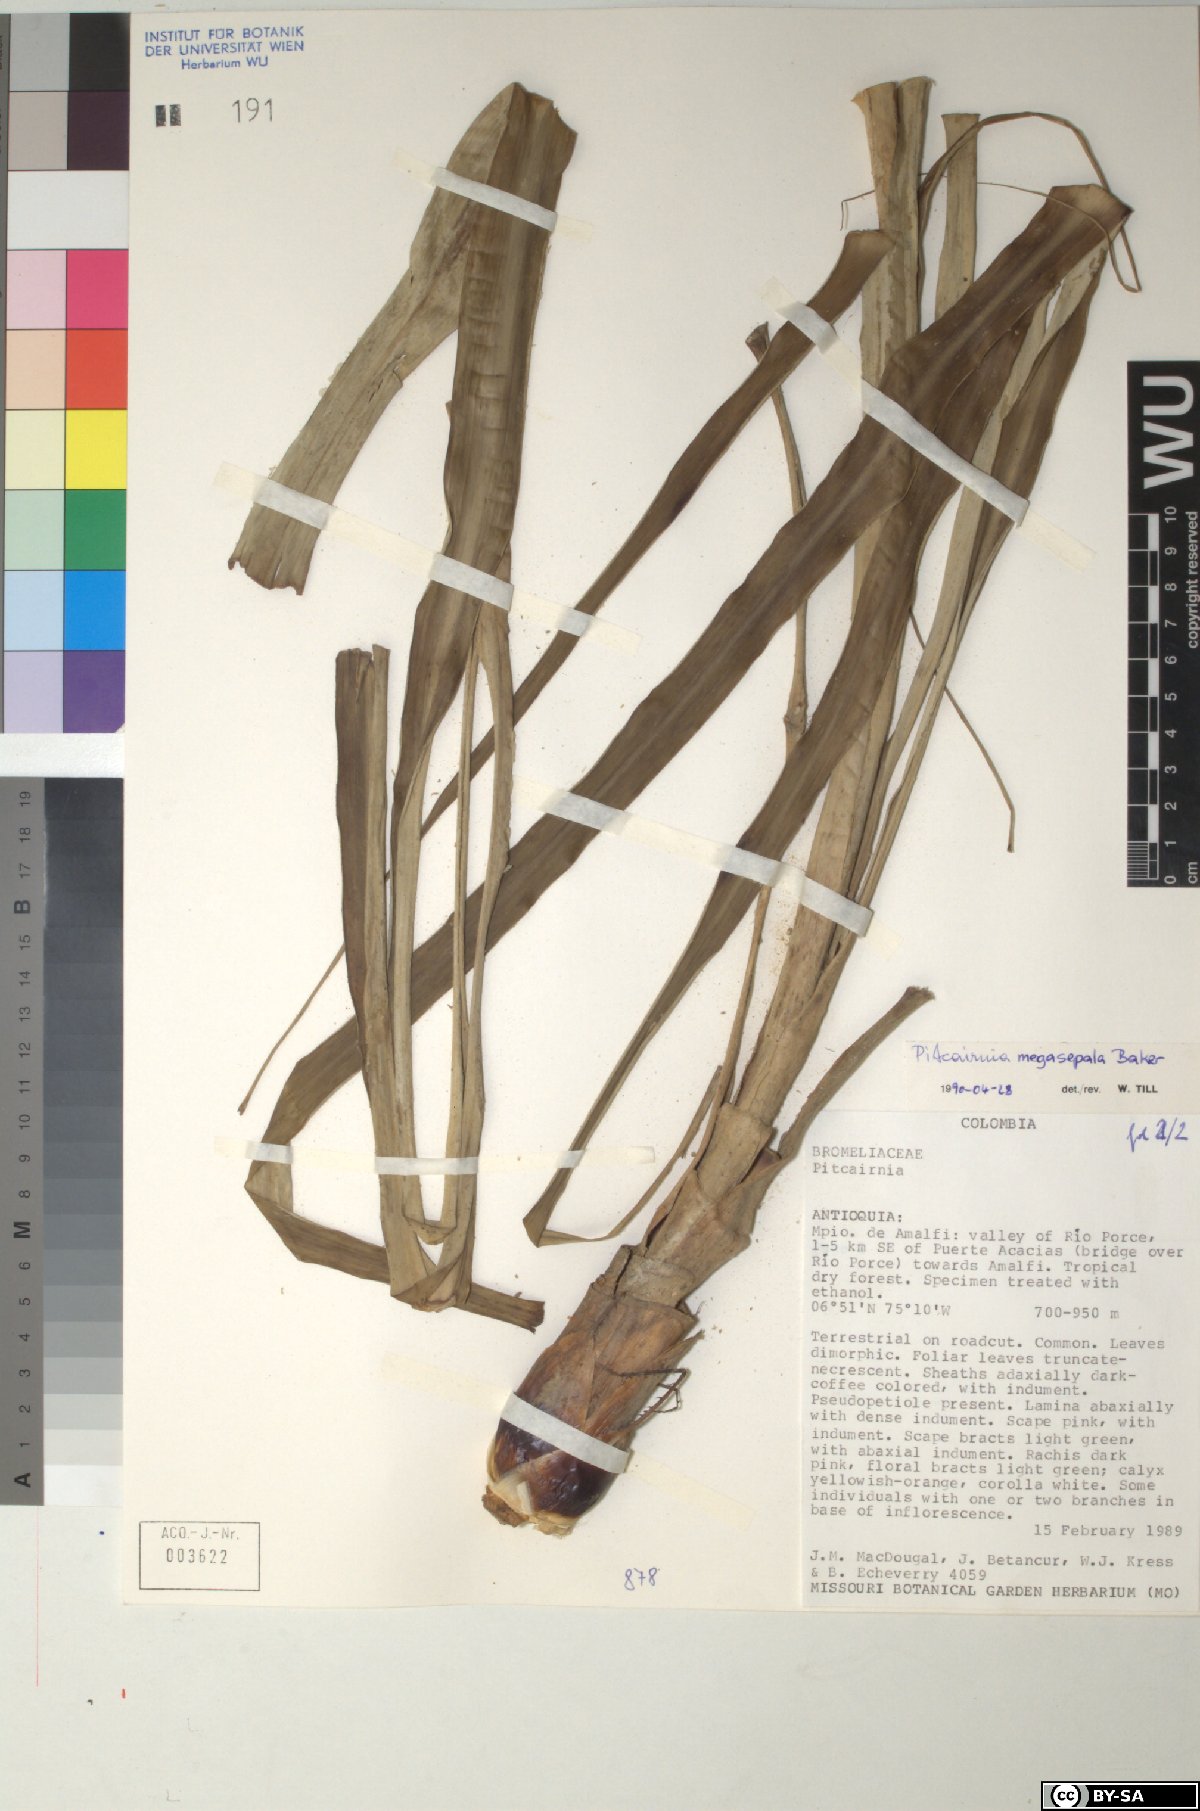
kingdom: Plantae
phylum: Tracheophyta
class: Liliopsida
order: Poales
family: Bromeliaceae
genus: Pitcairnia
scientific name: Pitcairnia megasepala
